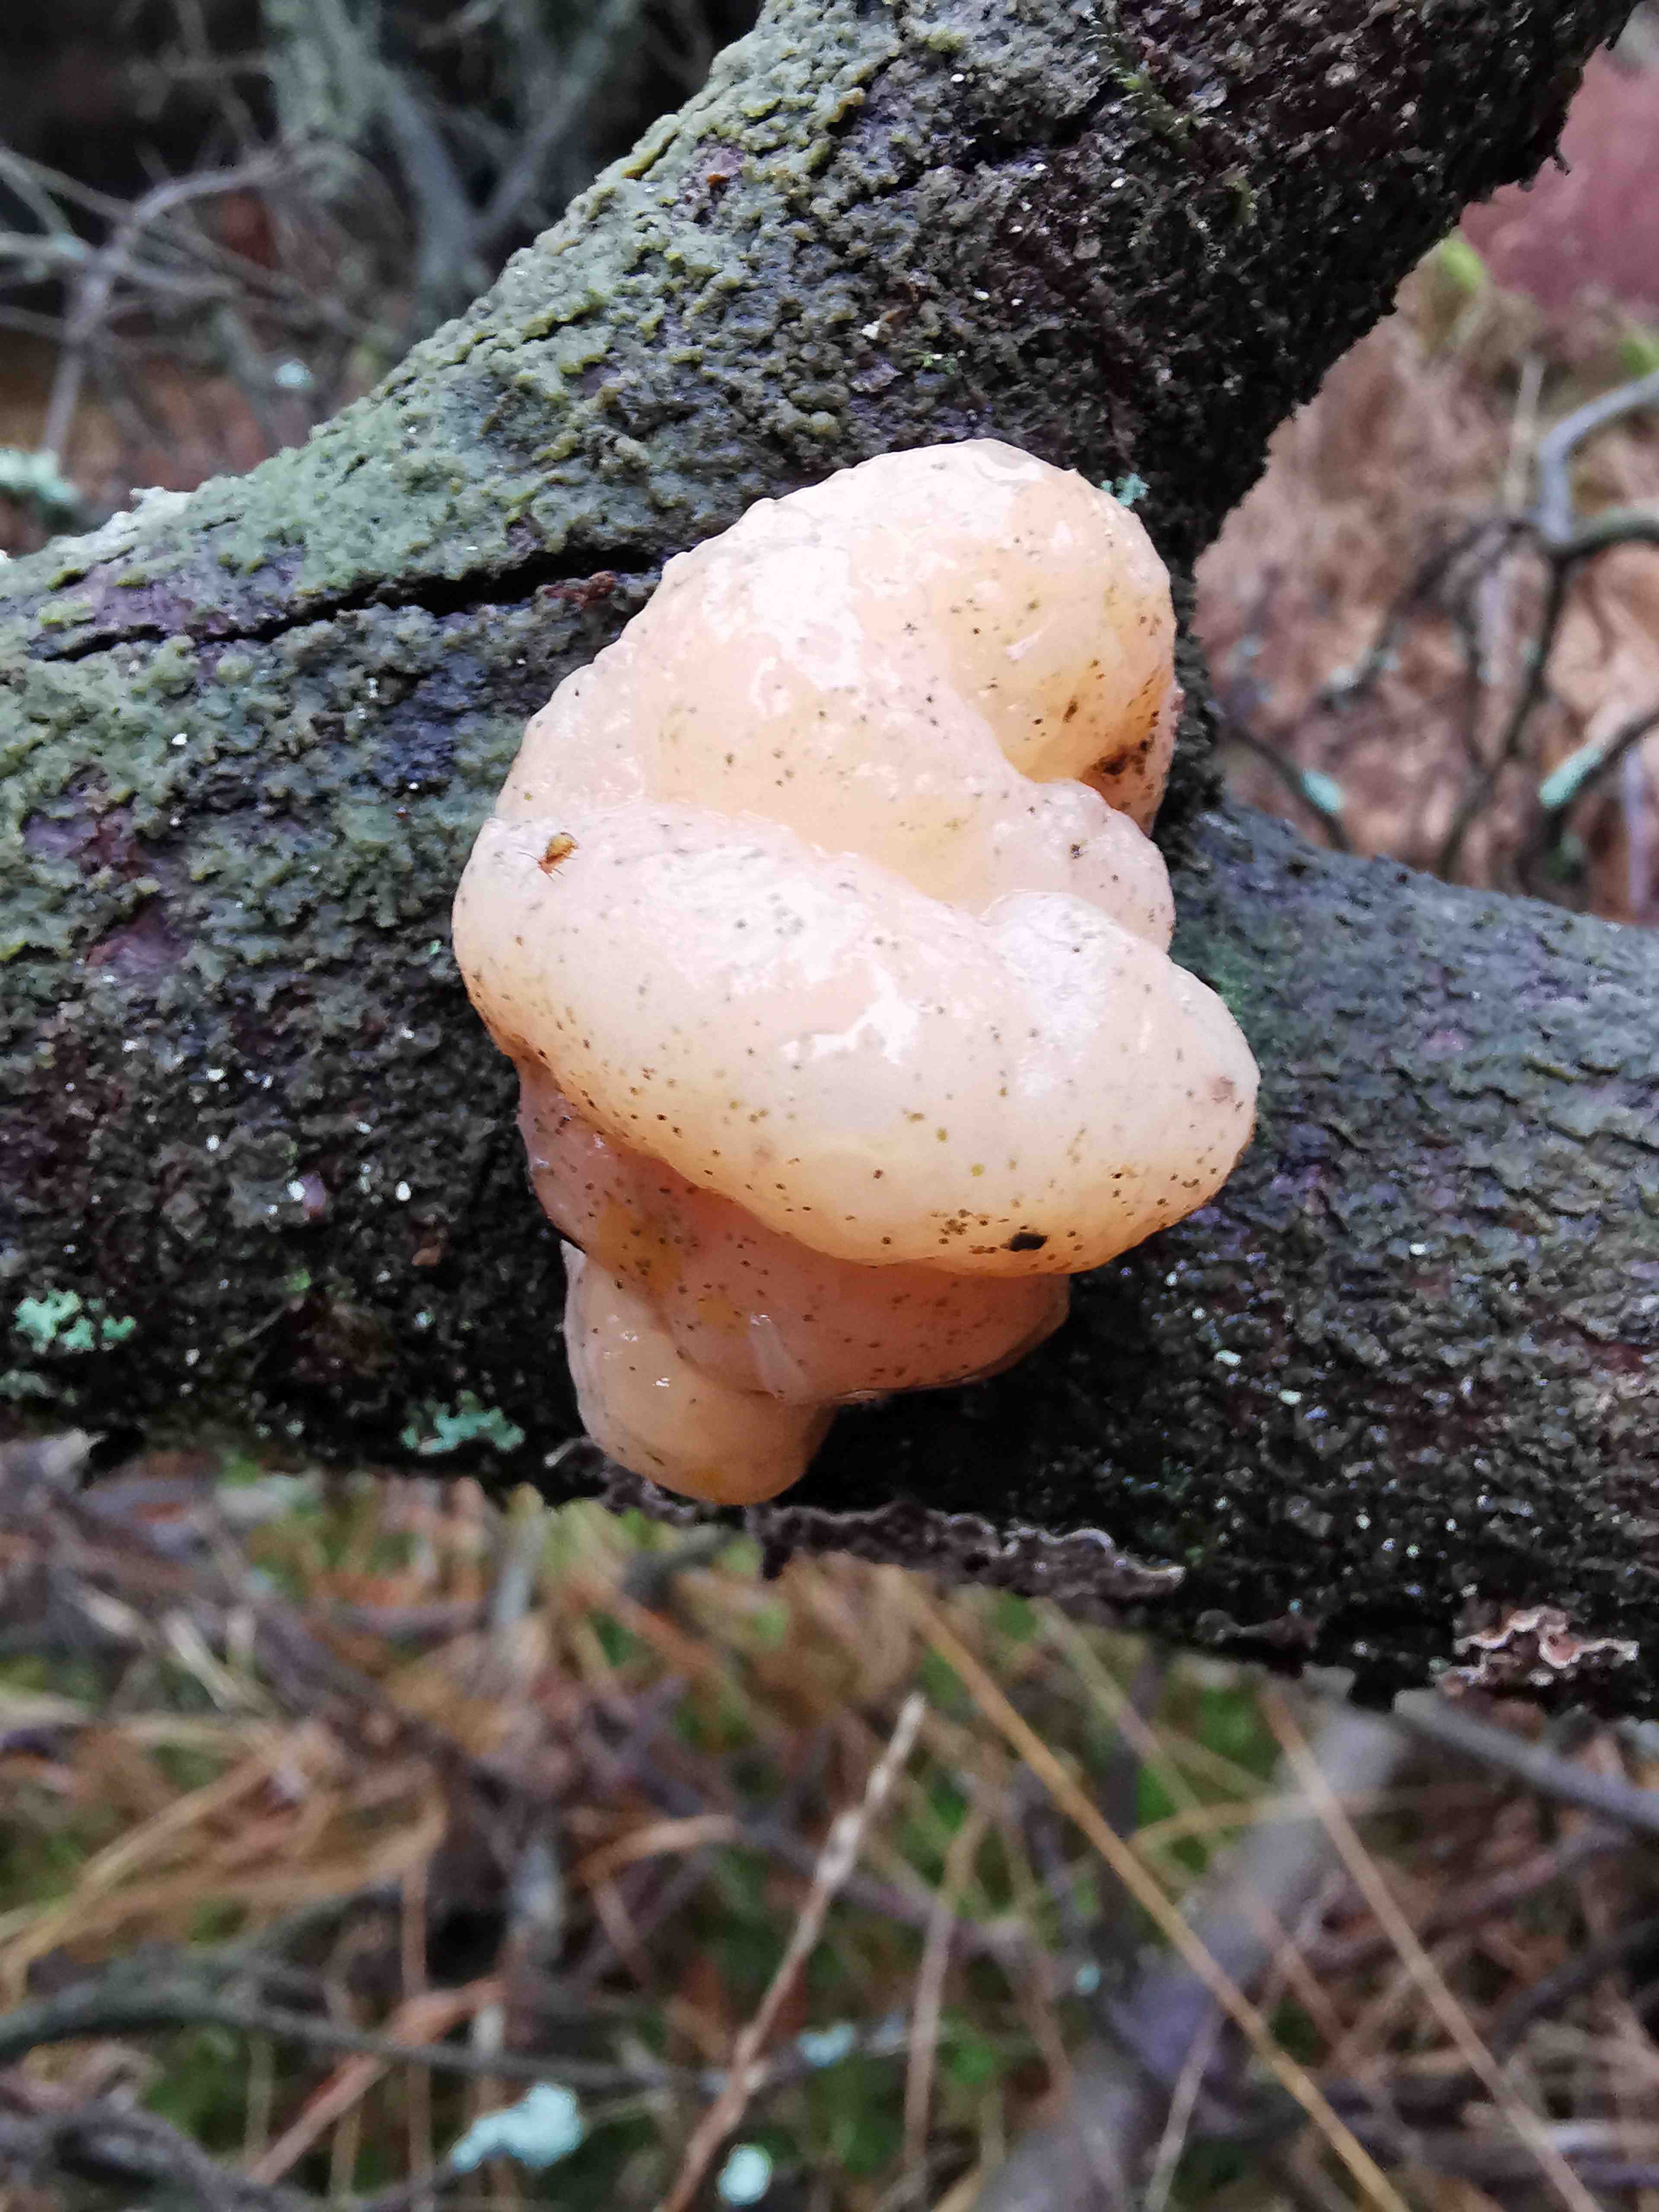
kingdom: Fungi
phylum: Basidiomycota
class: Tremellomycetes
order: Tremellales
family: Naemateliaceae
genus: Naematelia
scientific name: Naematelia encephala
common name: fyrre-bævresvamp
